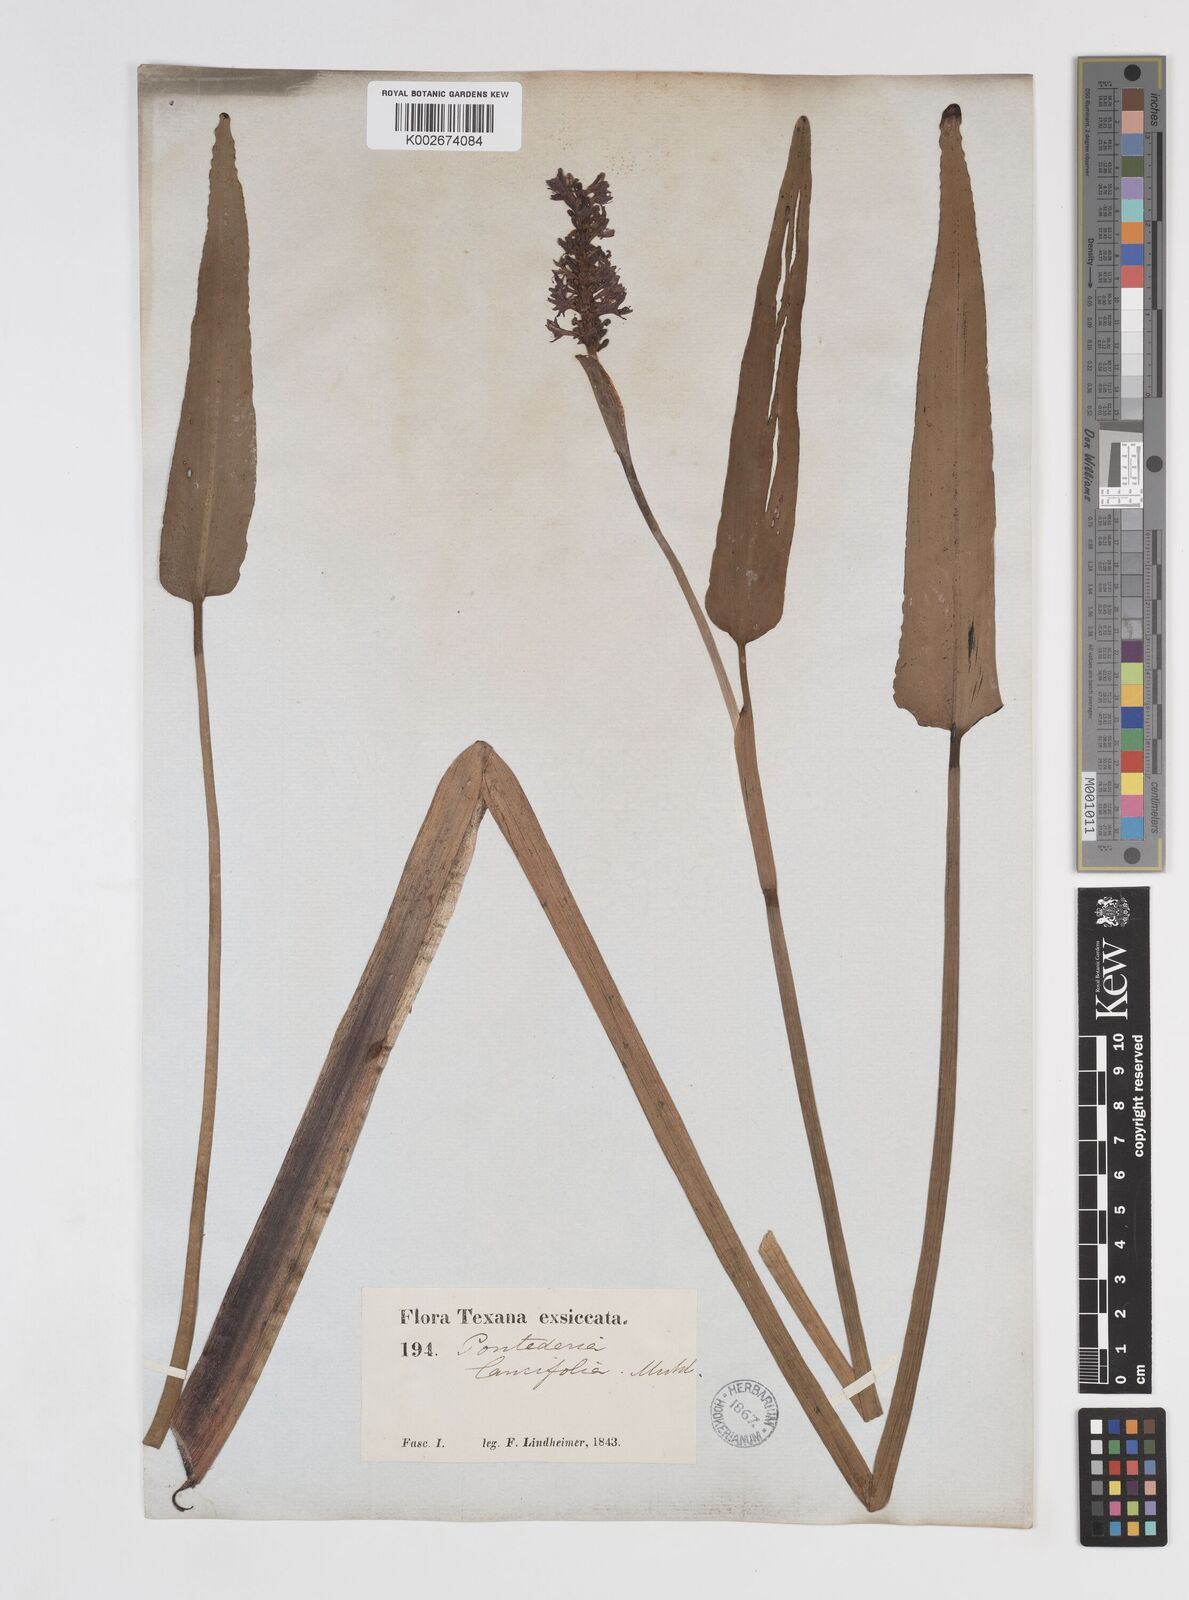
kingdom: Plantae
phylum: Tracheophyta
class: Liliopsida
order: Commelinales
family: Pontederiaceae
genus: Pontederia
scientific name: Pontederia cordata
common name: Pickerelweed
